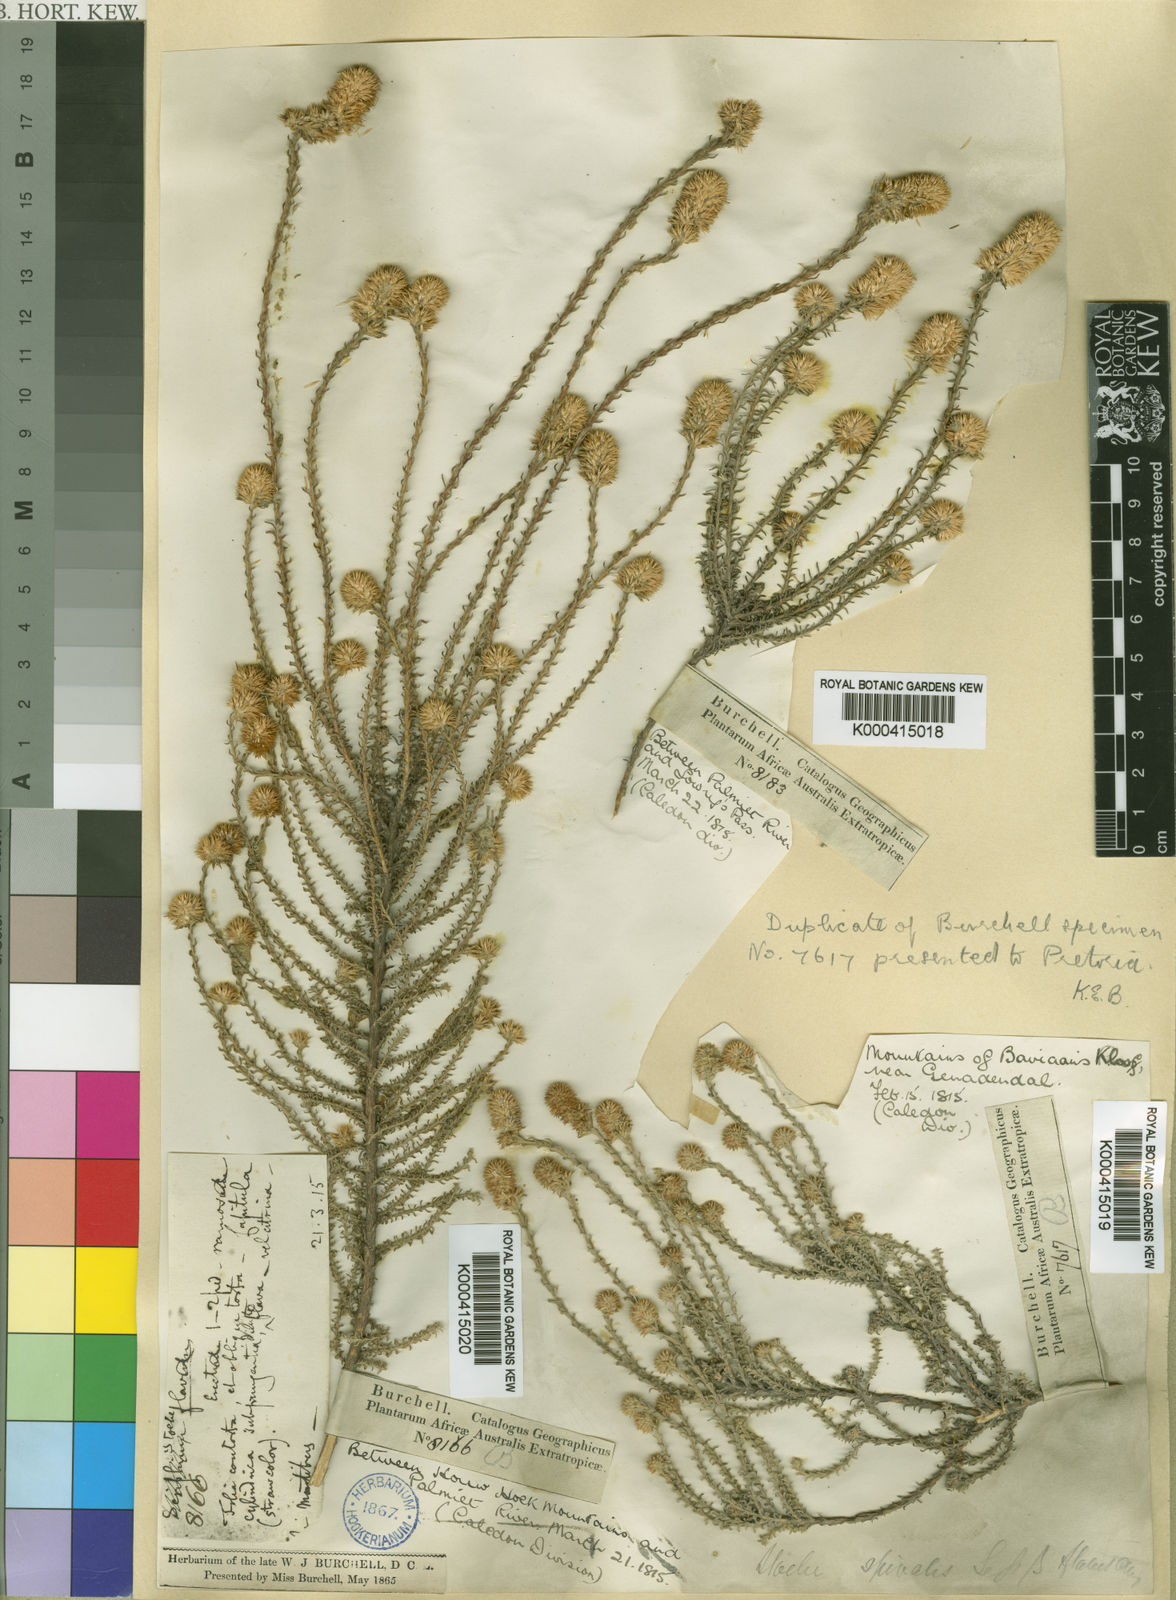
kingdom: Plantae
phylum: Tracheophyta
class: Magnoliopsida
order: Asterales
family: Asteraceae
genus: Seriphium
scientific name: Seriphium spirale
